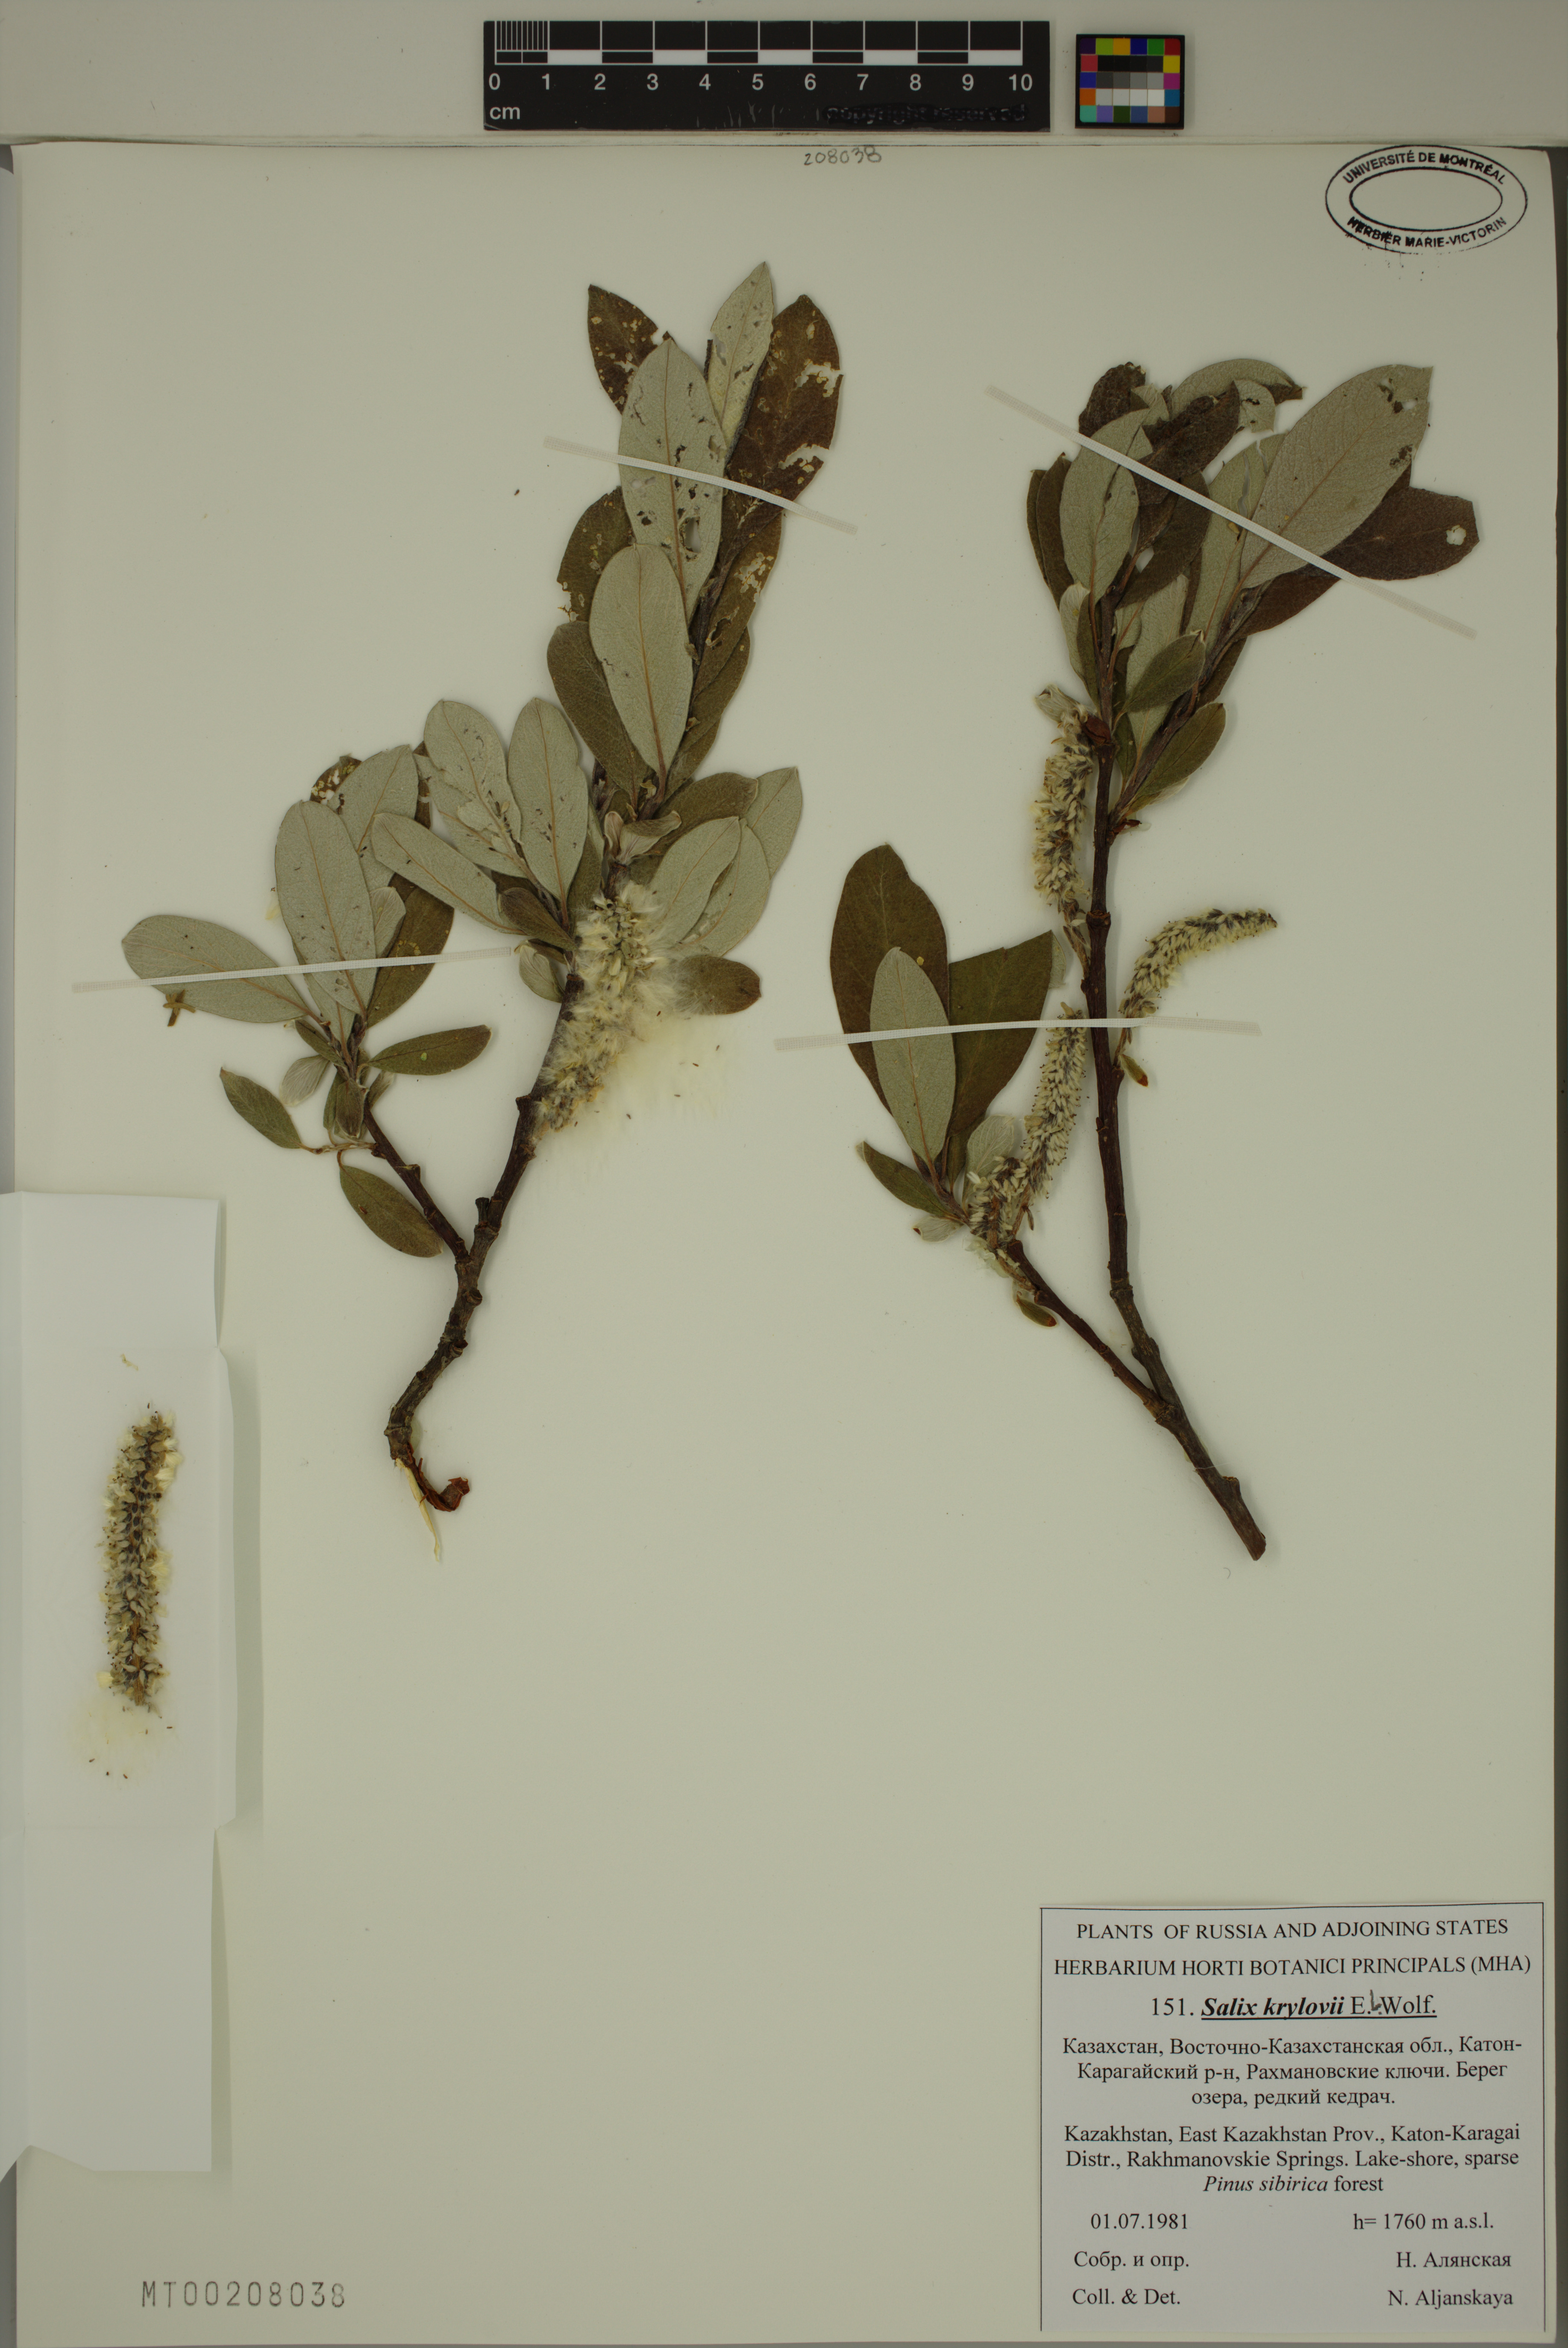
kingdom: Plantae
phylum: Tracheophyta
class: Magnoliopsida
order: Malpighiales
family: Salicaceae
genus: Salix
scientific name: Salix krylovii
